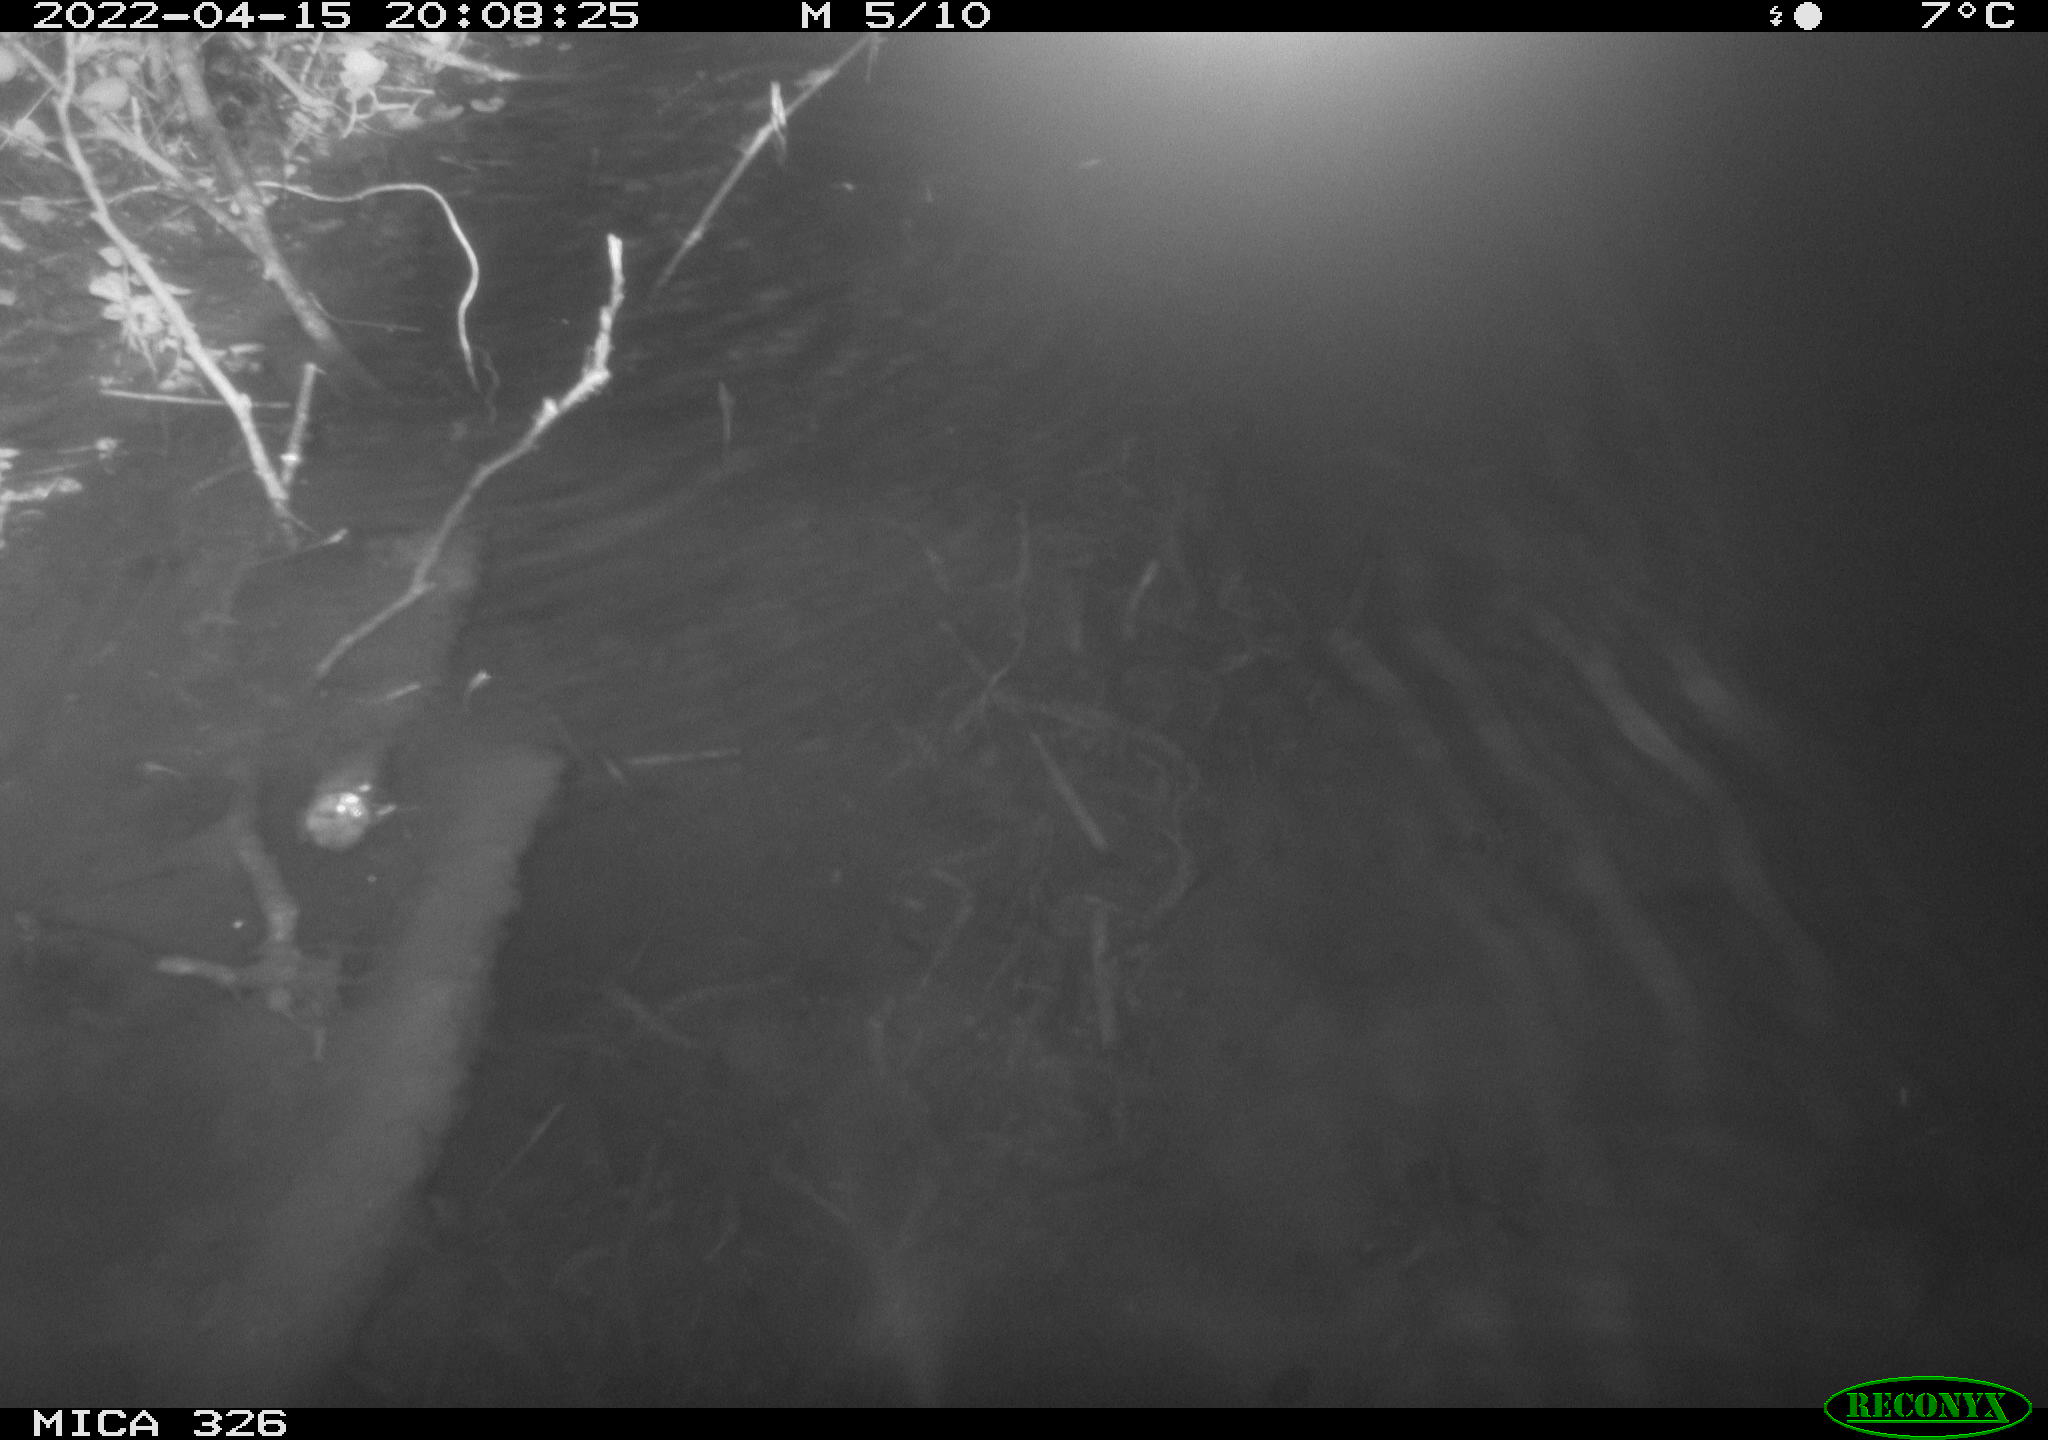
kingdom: Animalia
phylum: Chordata
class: Mammalia
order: Rodentia
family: Muridae
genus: Rattus
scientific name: Rattus norvegicus
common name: Brown rat
